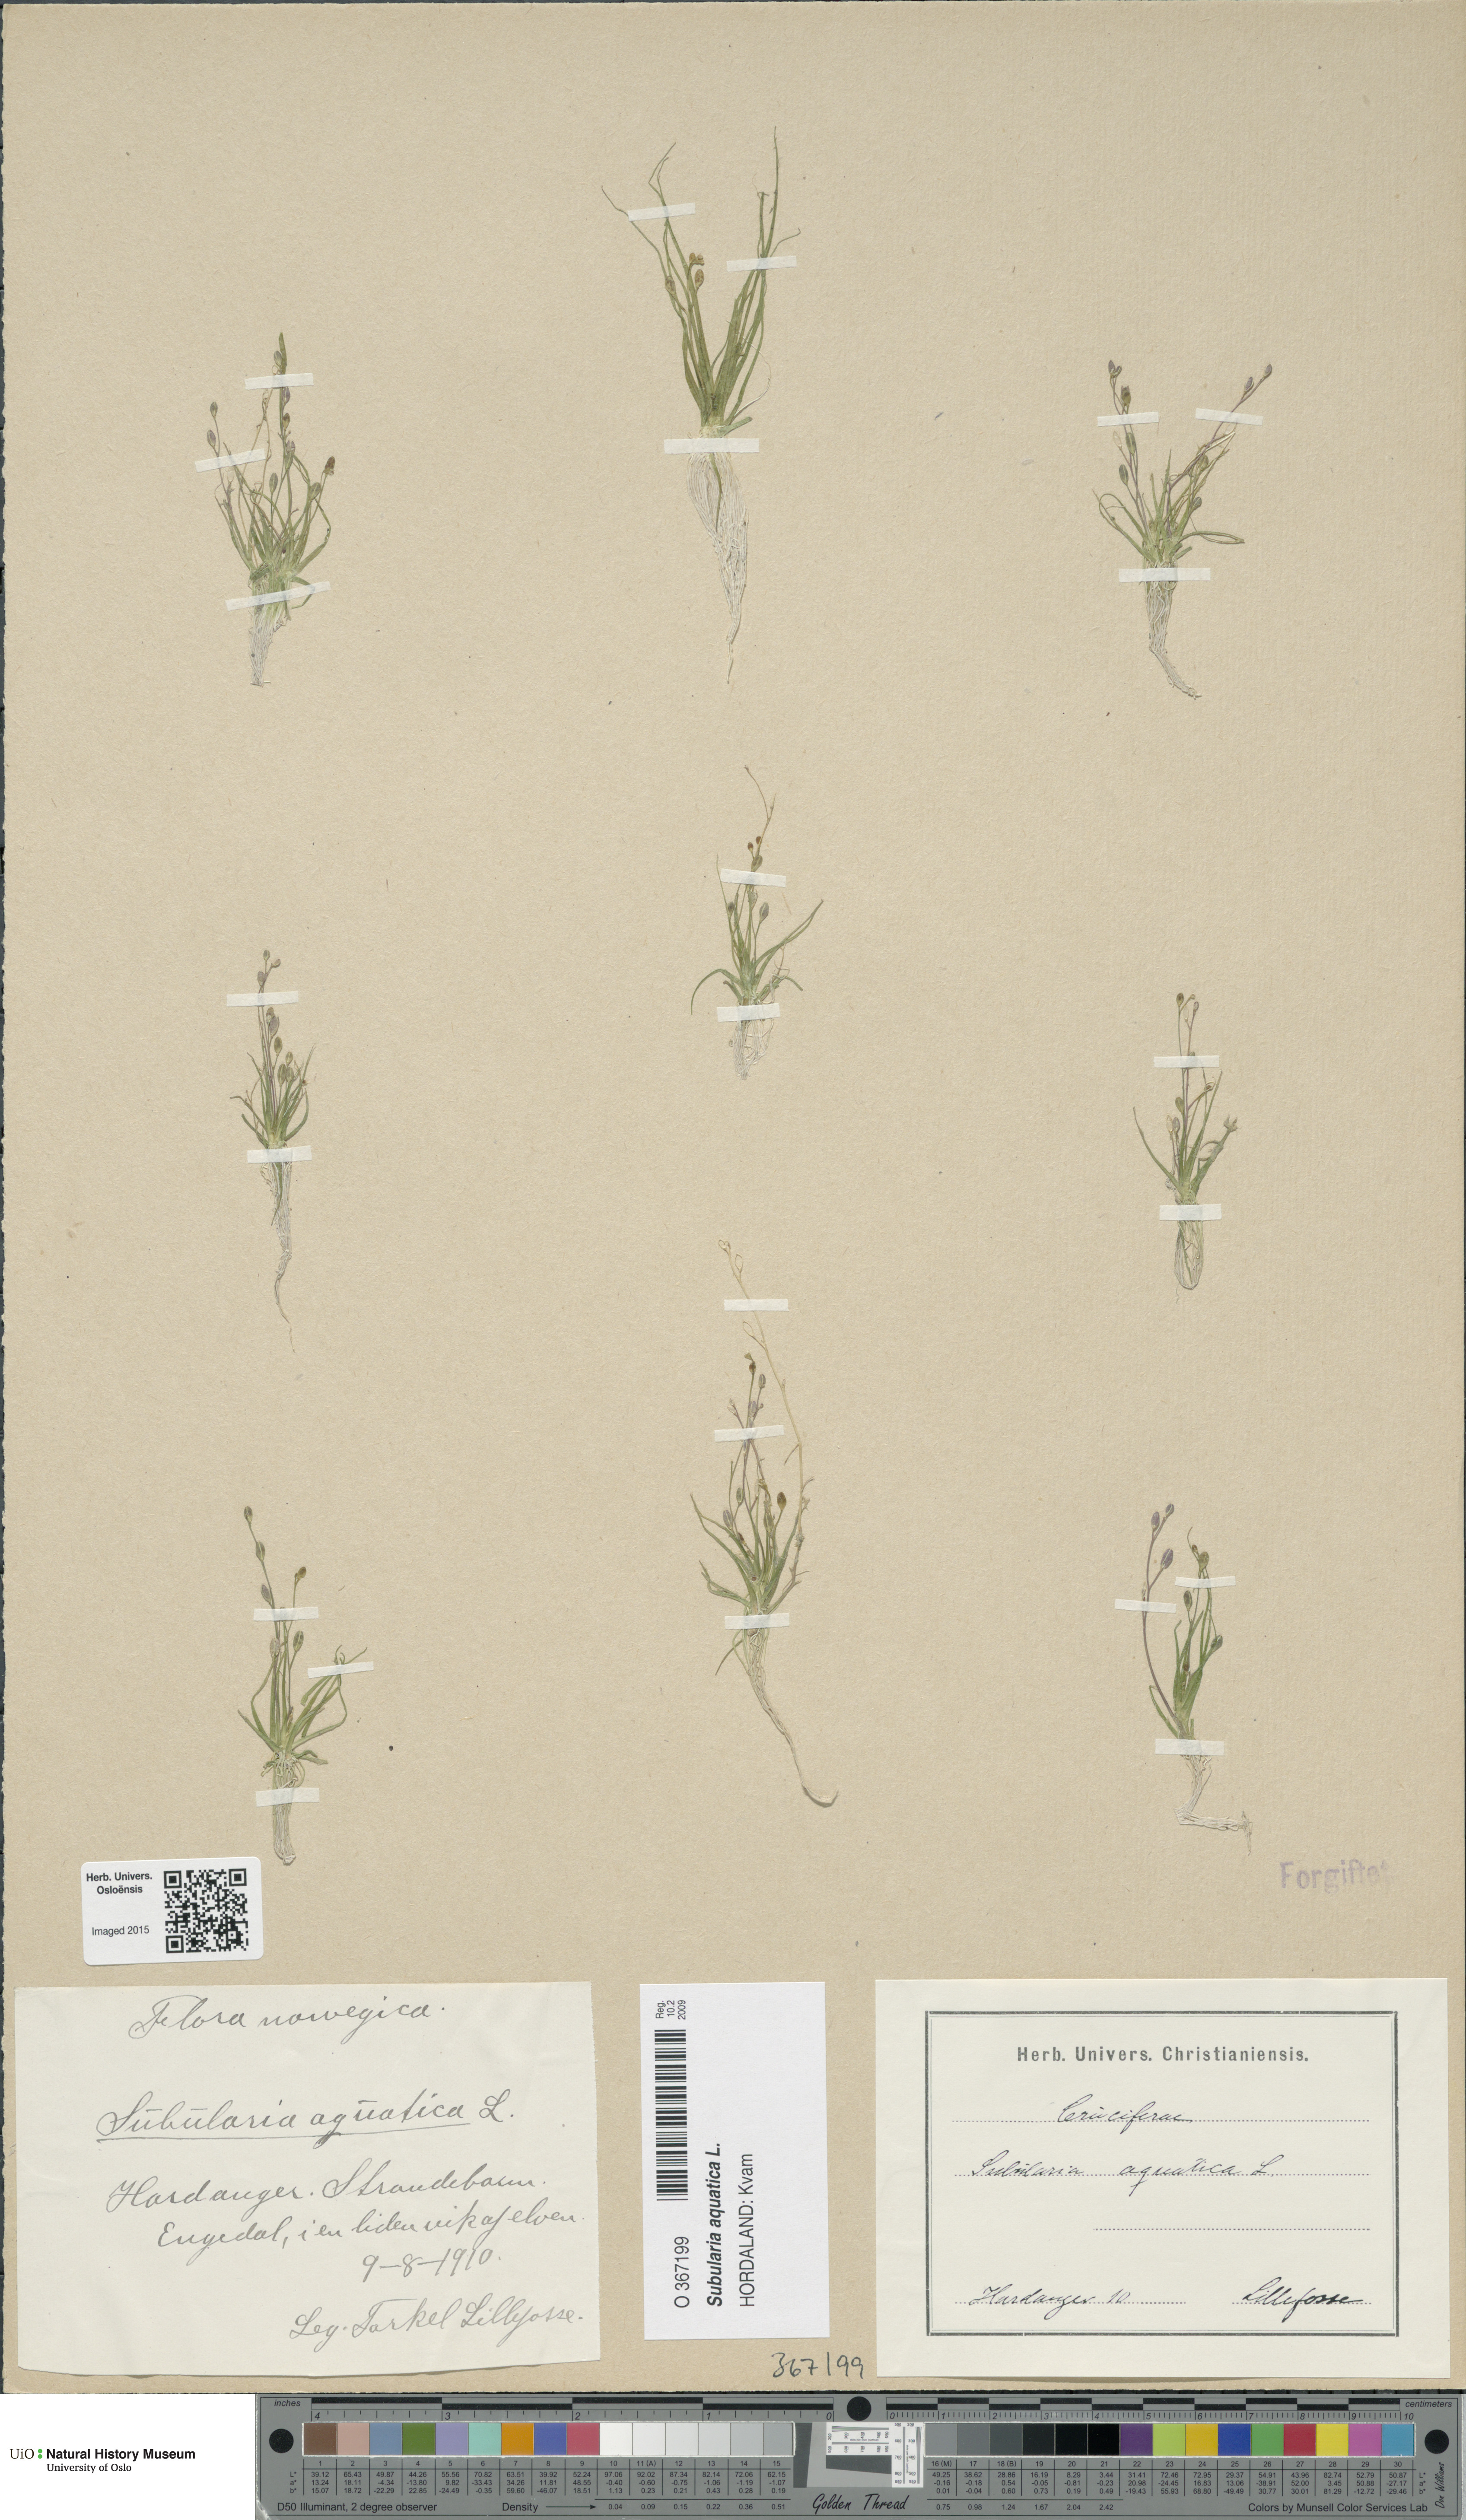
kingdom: Plantae
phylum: Tracheophyta
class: Magnoliopsida
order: Brassicales
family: Brassicaceae
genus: Subularia
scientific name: Subularia aquatica
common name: Awlwort
